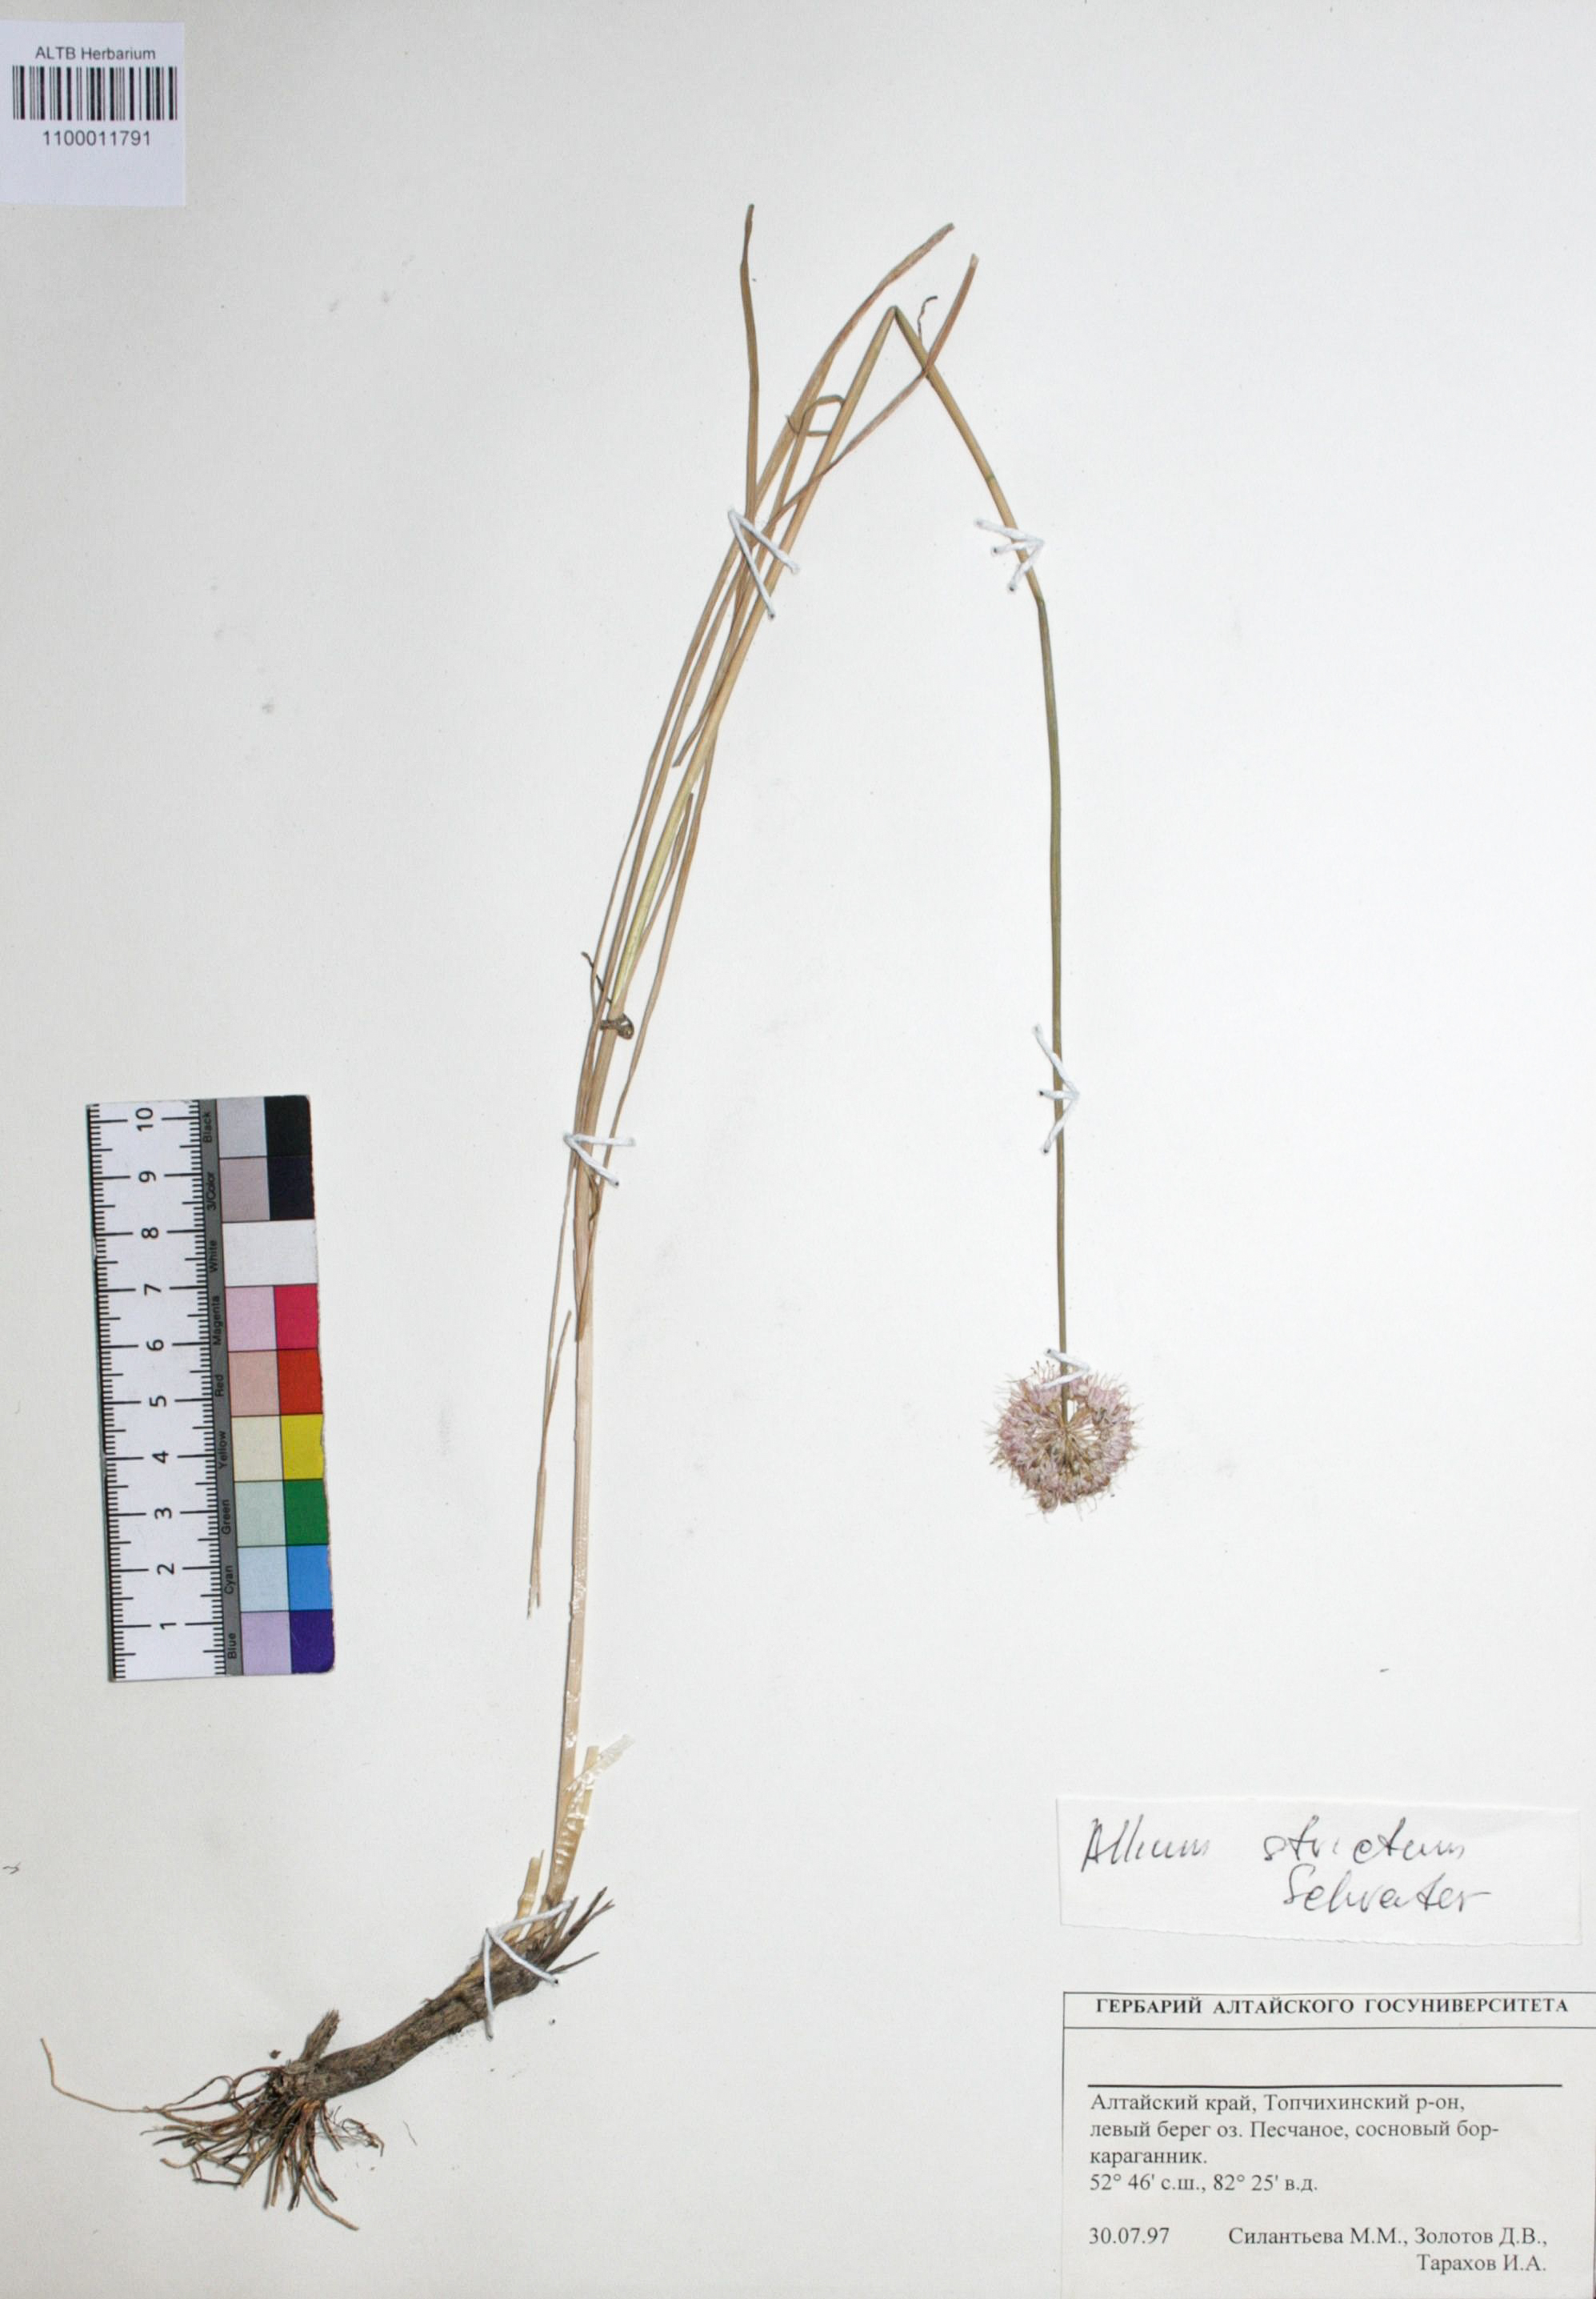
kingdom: Plantae
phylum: Tracheophyta
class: Liliopsida
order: Asparagales
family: Amaryllidaceae
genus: Allium
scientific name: Allium strictum
